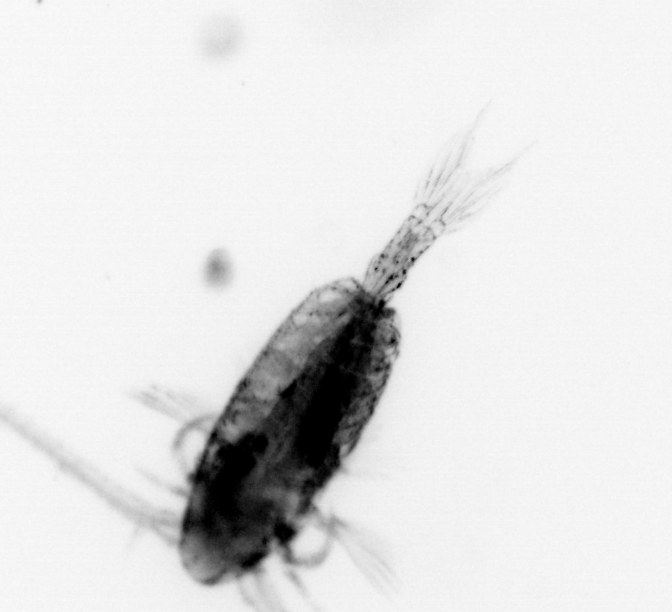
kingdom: Animalia
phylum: Arthropoda
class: Copepoda
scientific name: Copepoda
